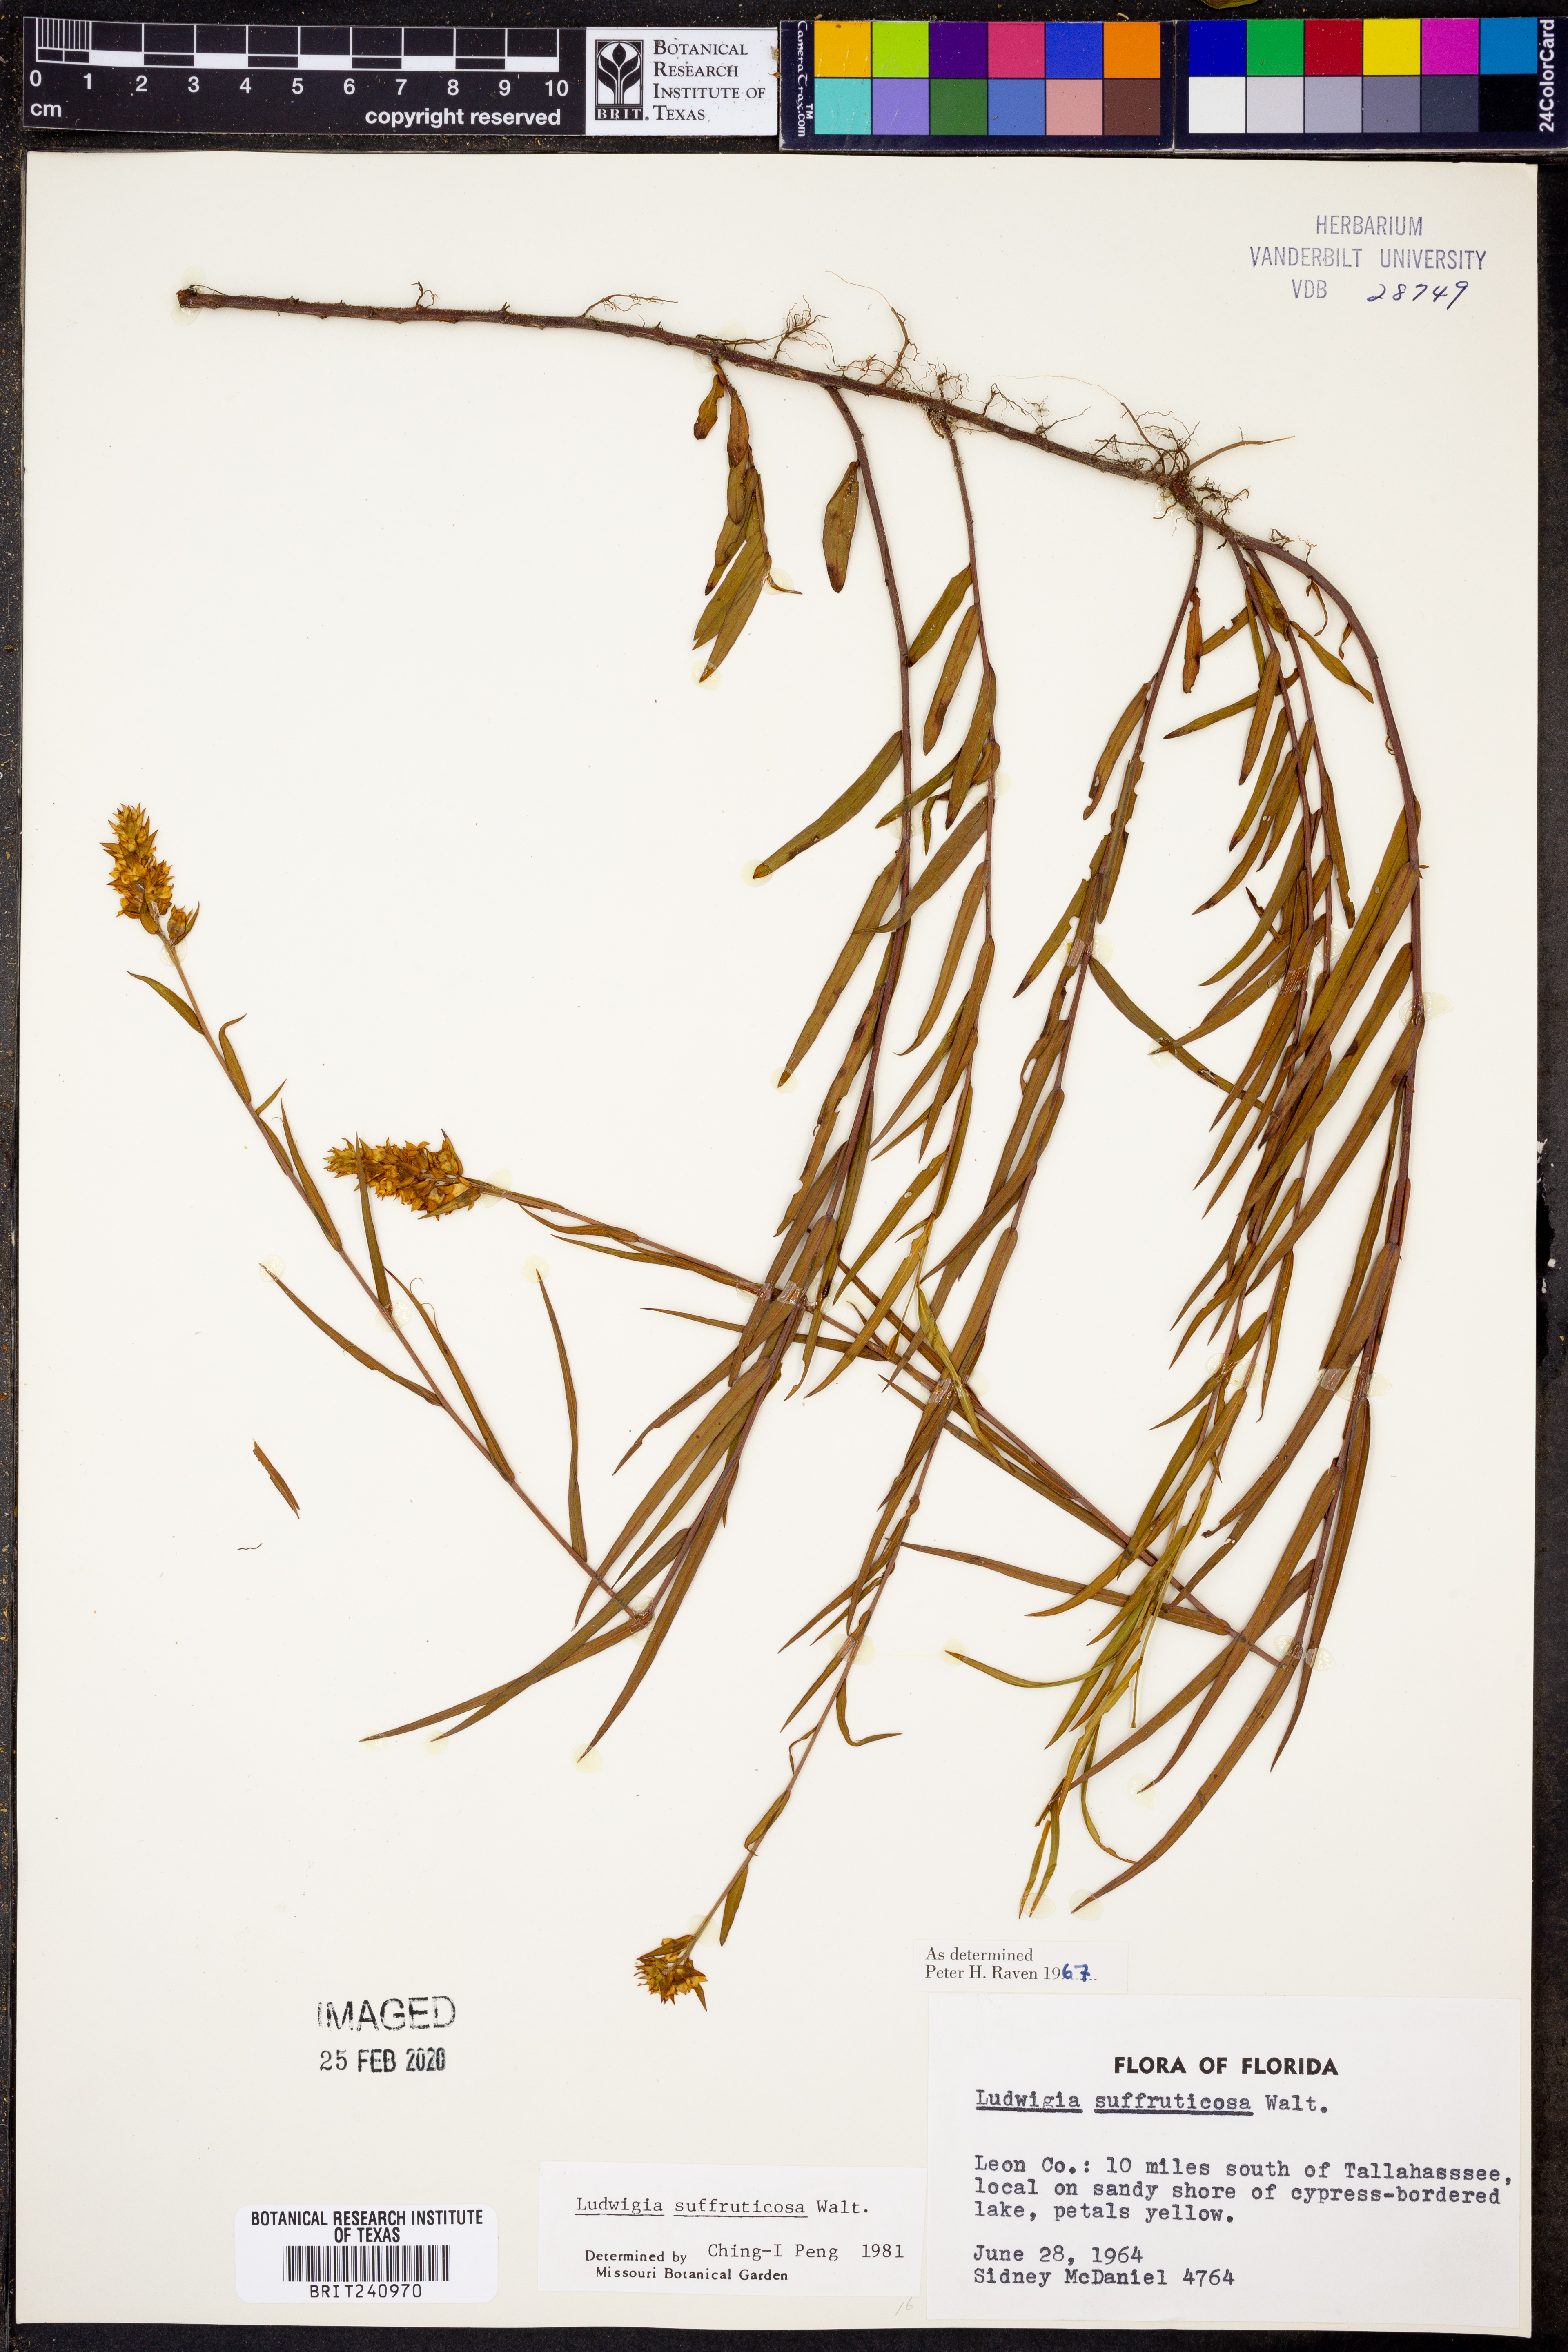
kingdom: Plantae
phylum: Tracheophyta
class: Magnoliopsida
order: Myrtales
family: Onagraceae
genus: Ludwigia
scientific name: Ludwigia suffruticosa
